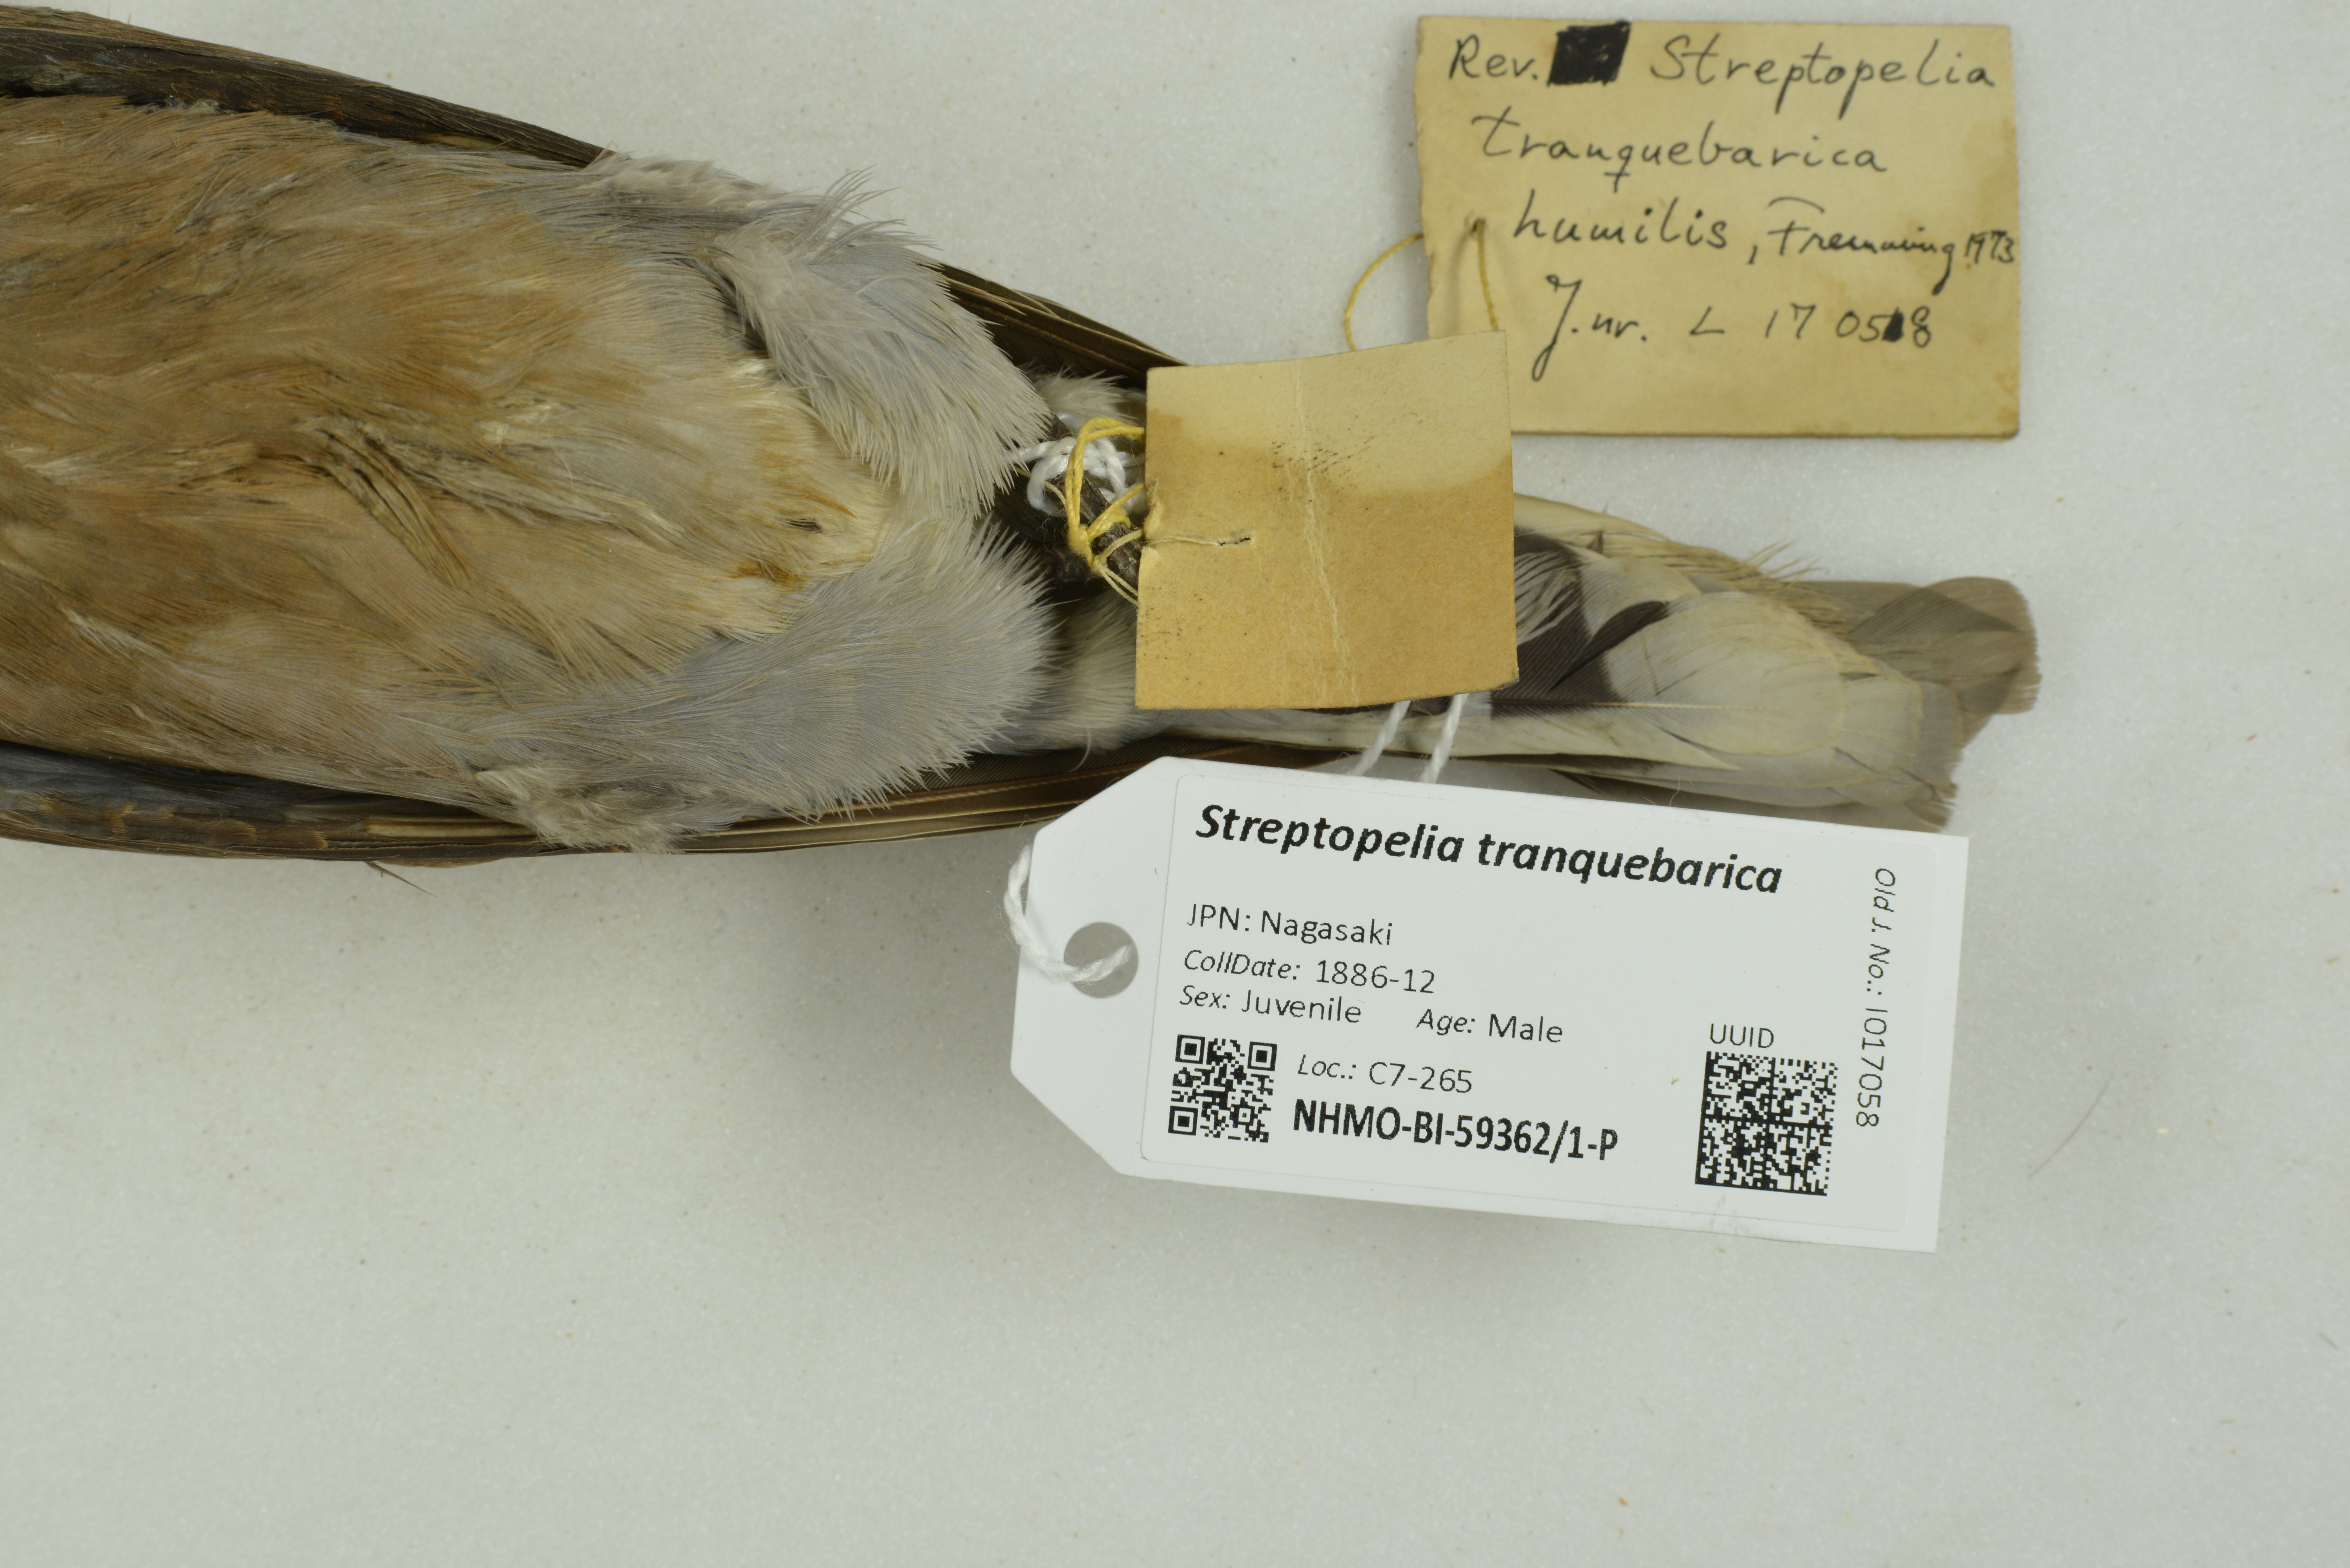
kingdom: Animalia
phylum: Chordata
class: Aves
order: Columbiformes
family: Columbidae
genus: Streptopelia
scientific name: Streptopelia tranquebarica
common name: Red turtle dove
